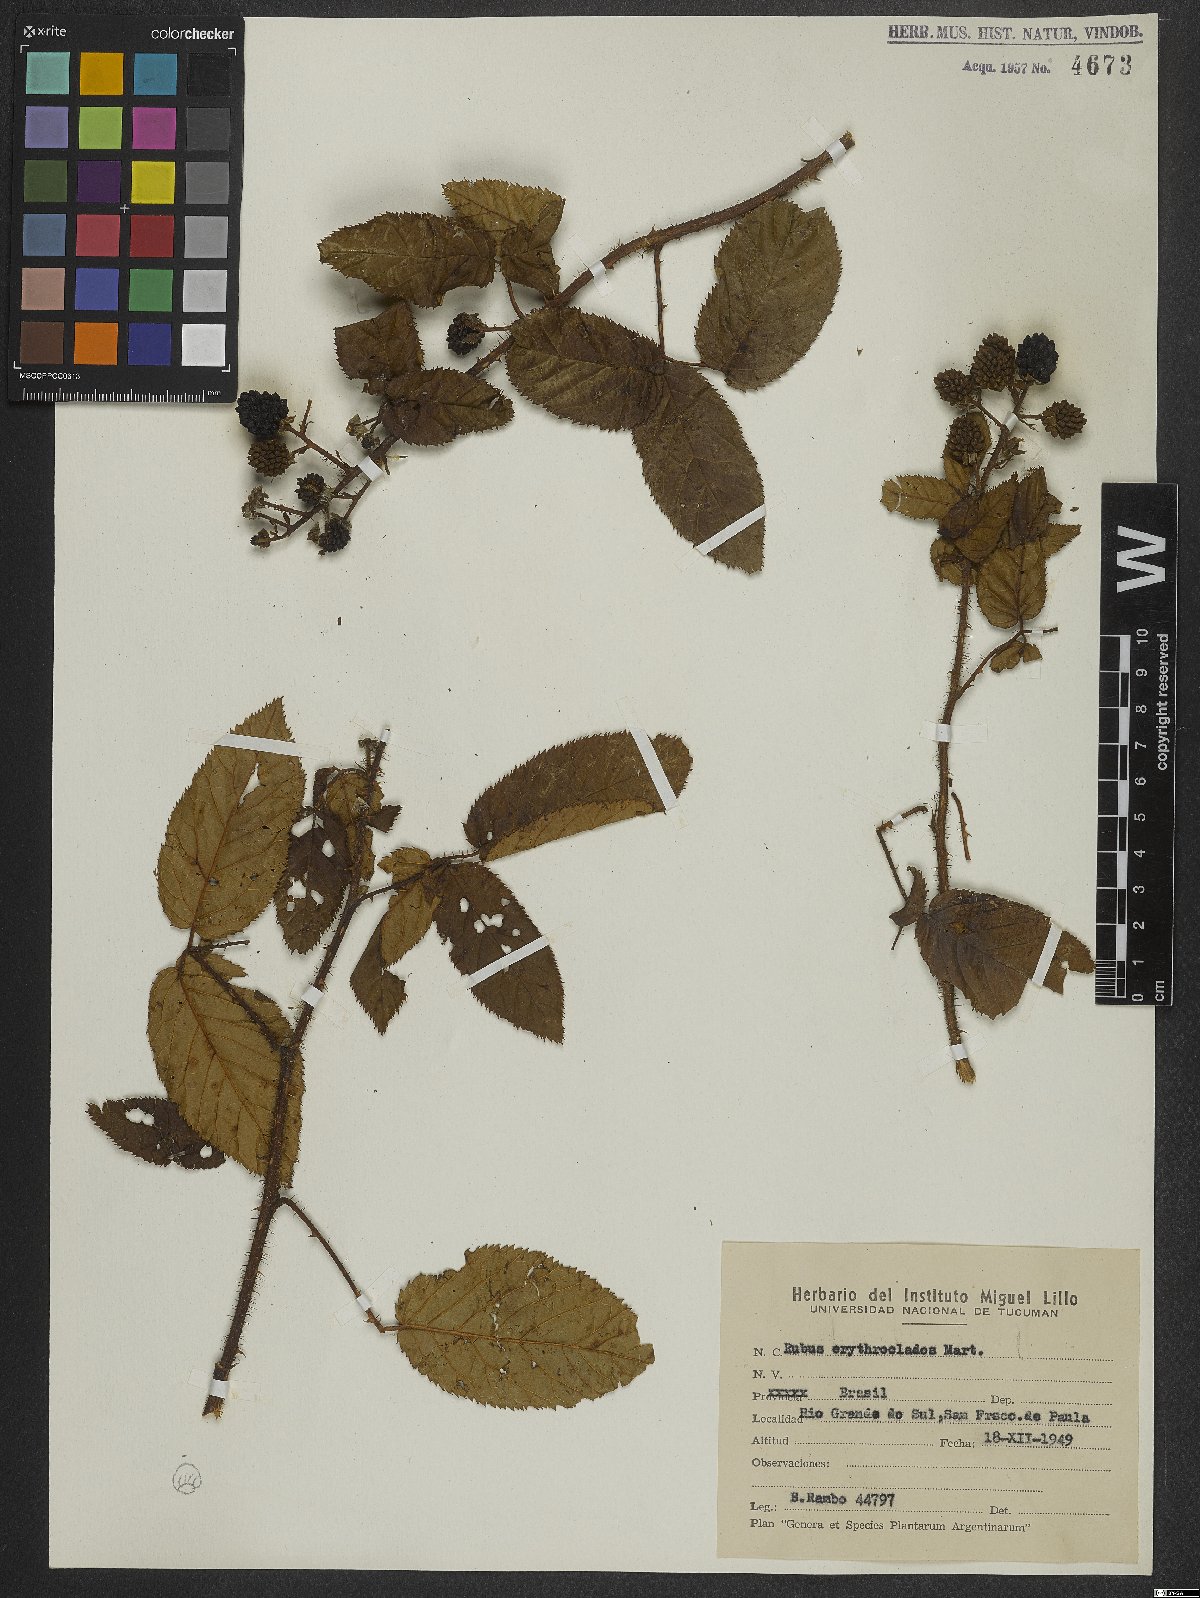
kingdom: Plantae
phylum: Tracheophyta
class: Magnoliopsida
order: Rosales
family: Rosaceae
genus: Rubus
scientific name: Rubus erythroclados
